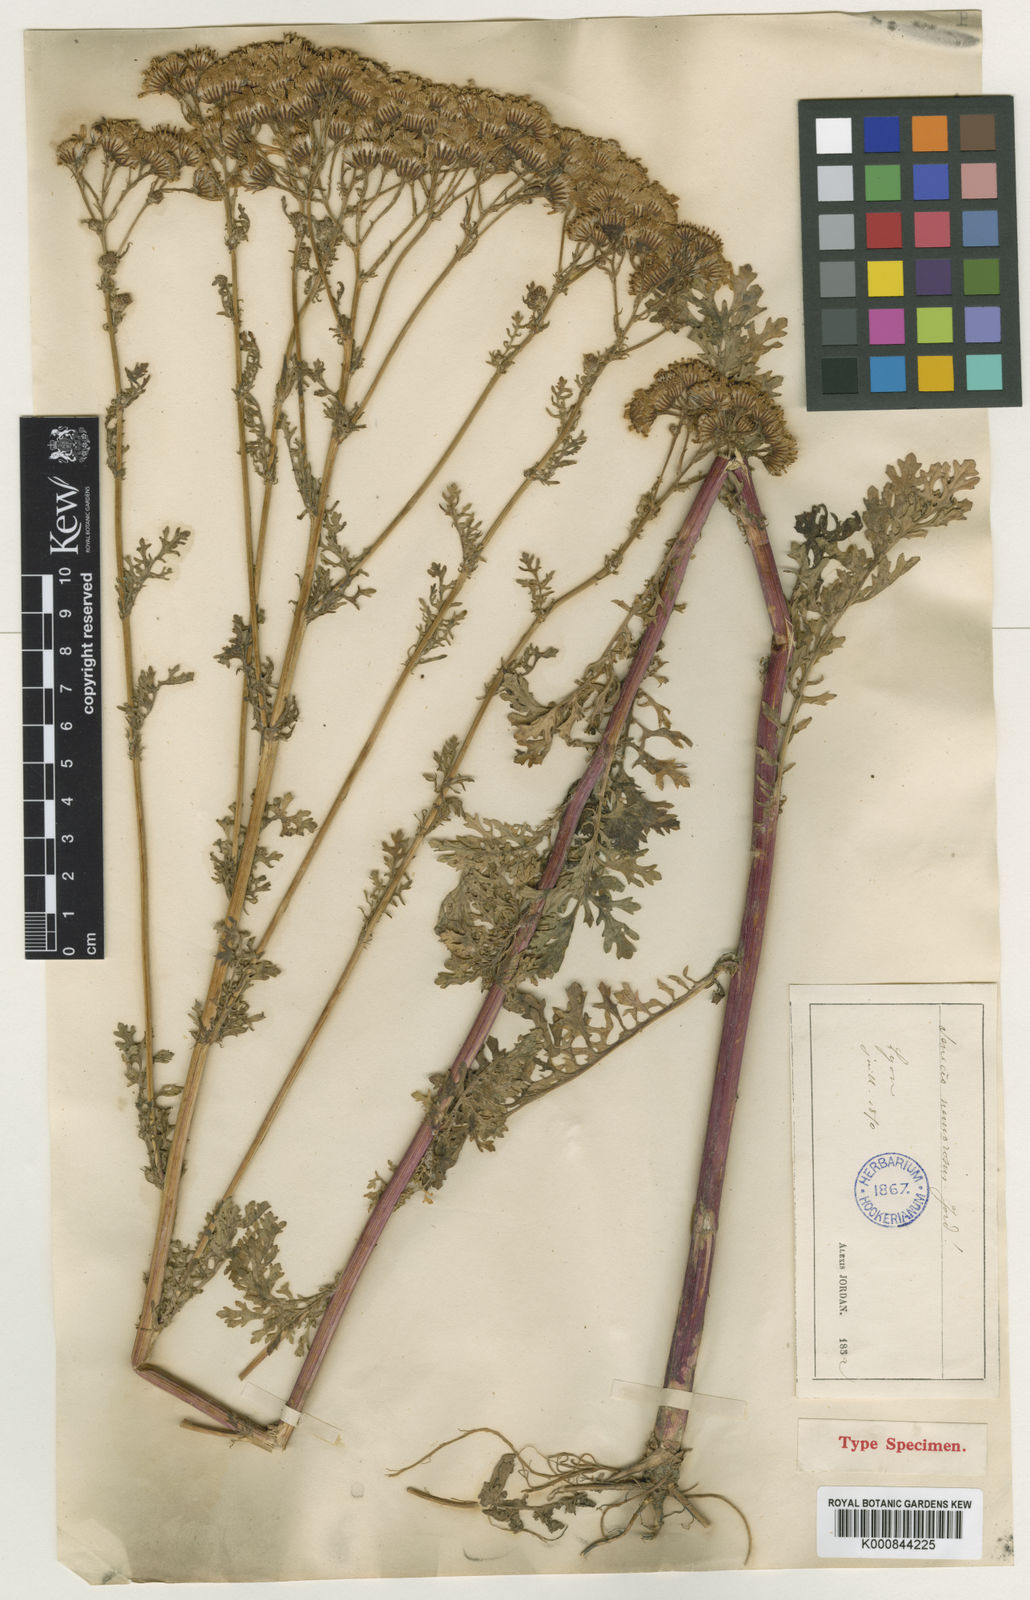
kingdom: Plantae
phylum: Tracheophyta
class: Magnoliopsida
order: Asterales
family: Asteraceae
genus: Jacobaea
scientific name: Jacobaea vulgaris
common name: Stinking willie
